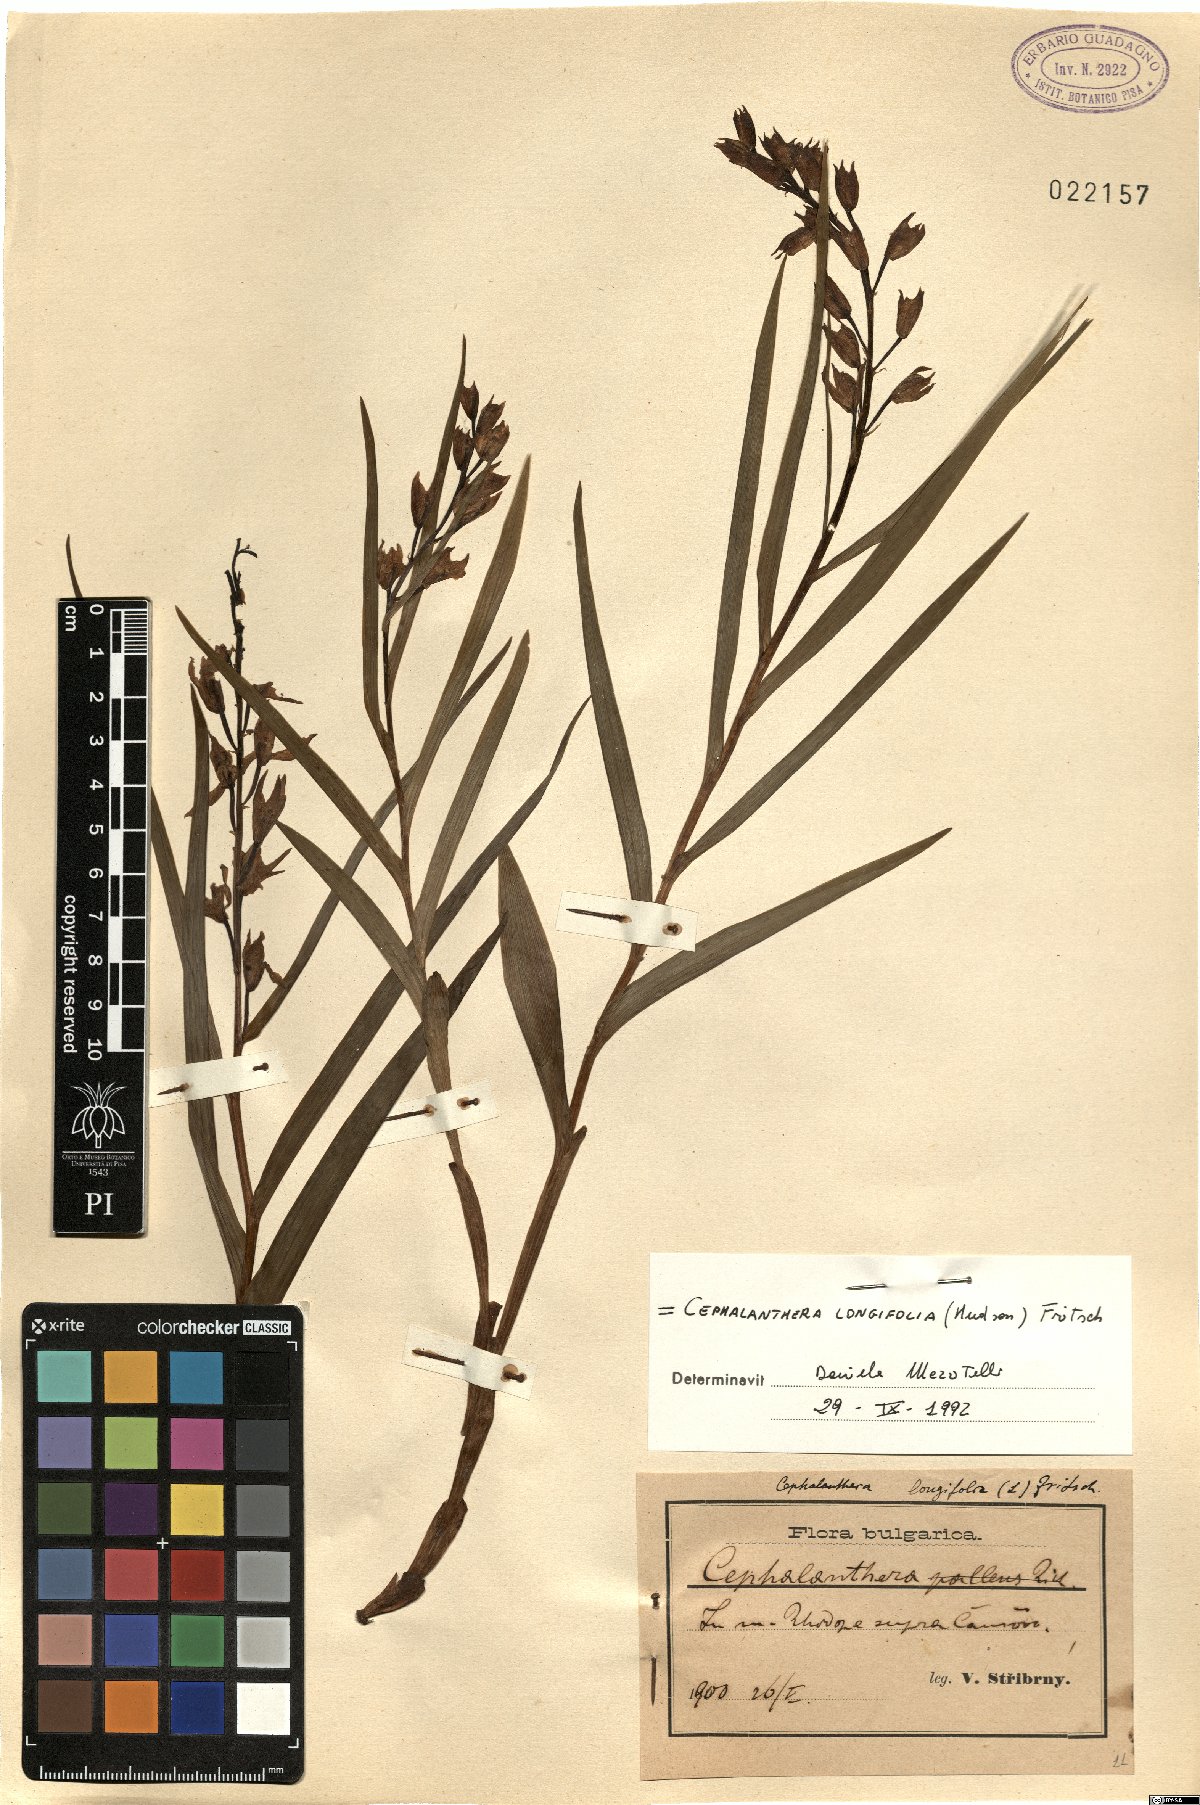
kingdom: Plantae
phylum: Tracheophyta
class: Liliopsida
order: Asparagales
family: Orchidaceae
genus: Cephalanthera
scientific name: Cephalanthera longifolia
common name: Narrow-leaved helleborine
